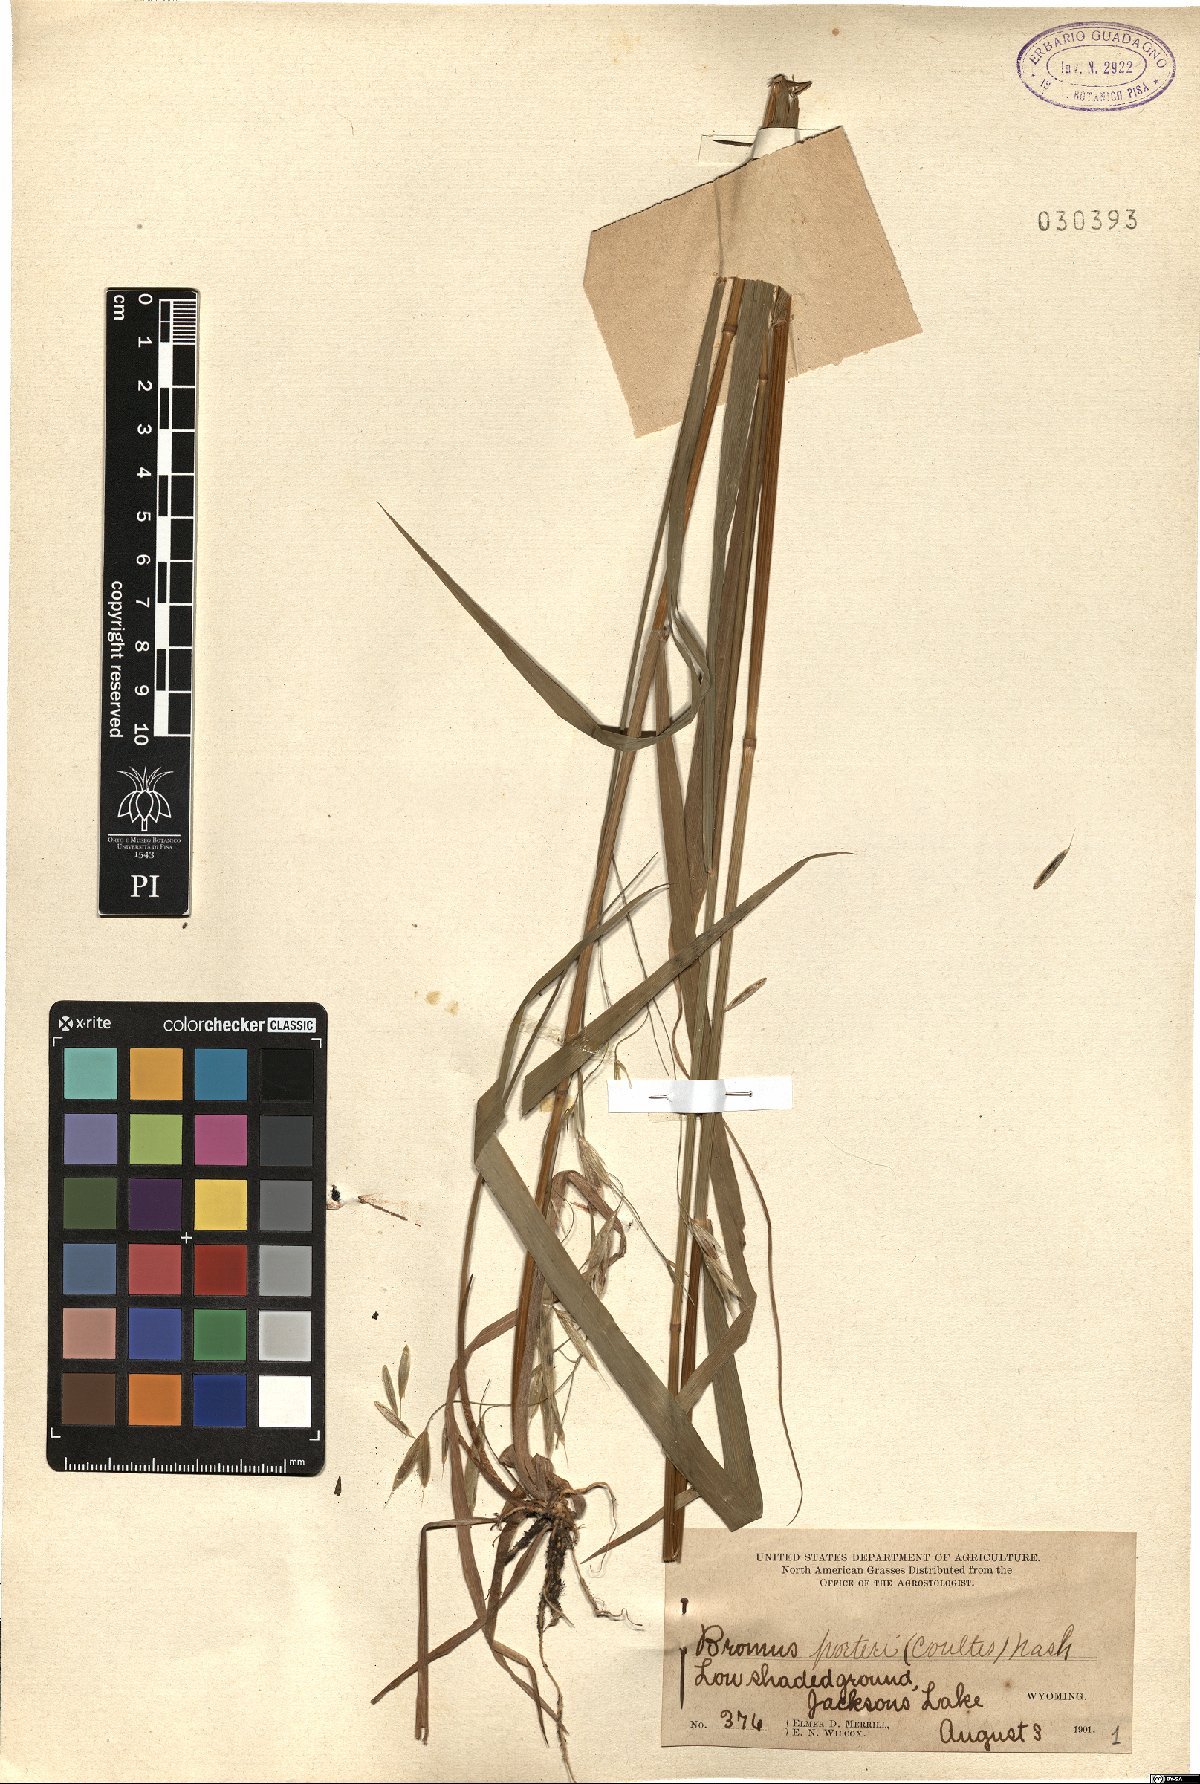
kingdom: Plantae
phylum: Tracheophyta
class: Liliopsida
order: Poales
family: Poaceae
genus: Bromus
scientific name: Bromus porteri
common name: Nodding brome
